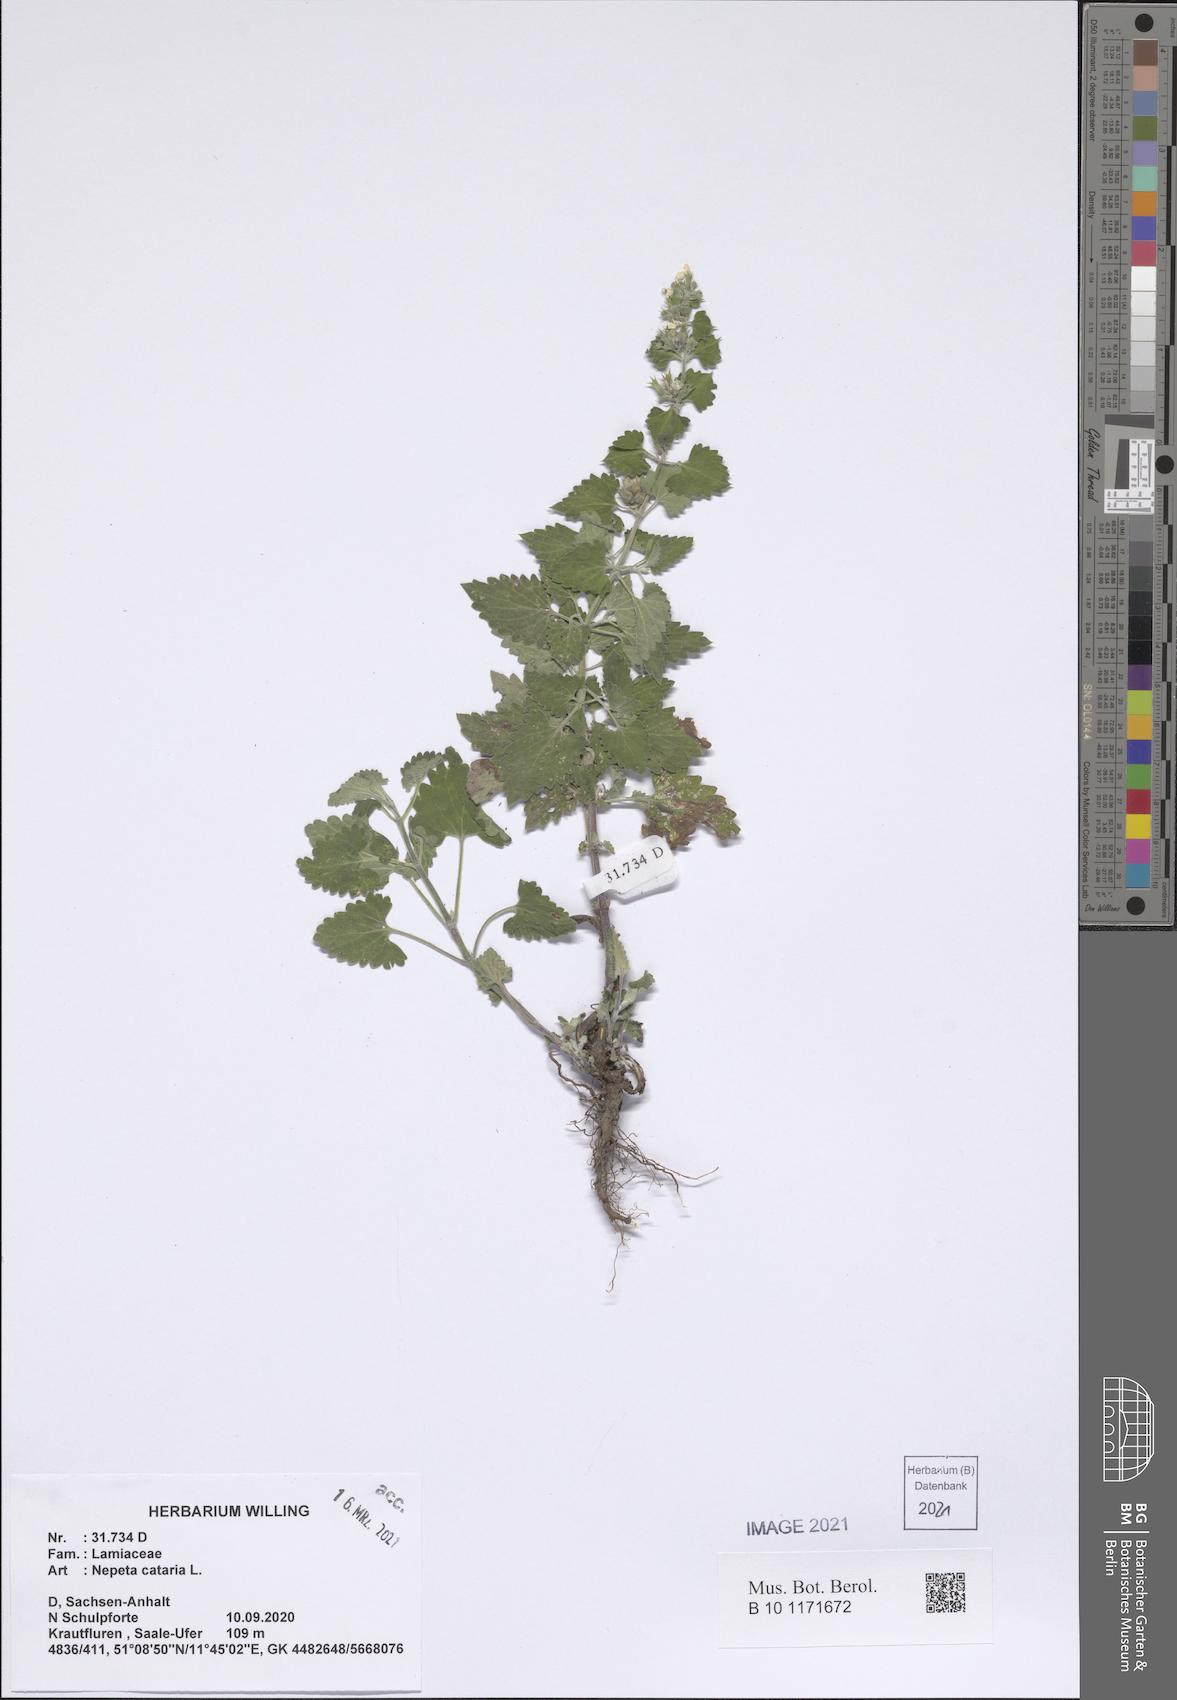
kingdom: Plantae
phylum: Tracheophyta
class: Magnoliopsida
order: Lamiales
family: Lamiaceae
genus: Nepeta
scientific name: Nepeta cataria
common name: Catnip
